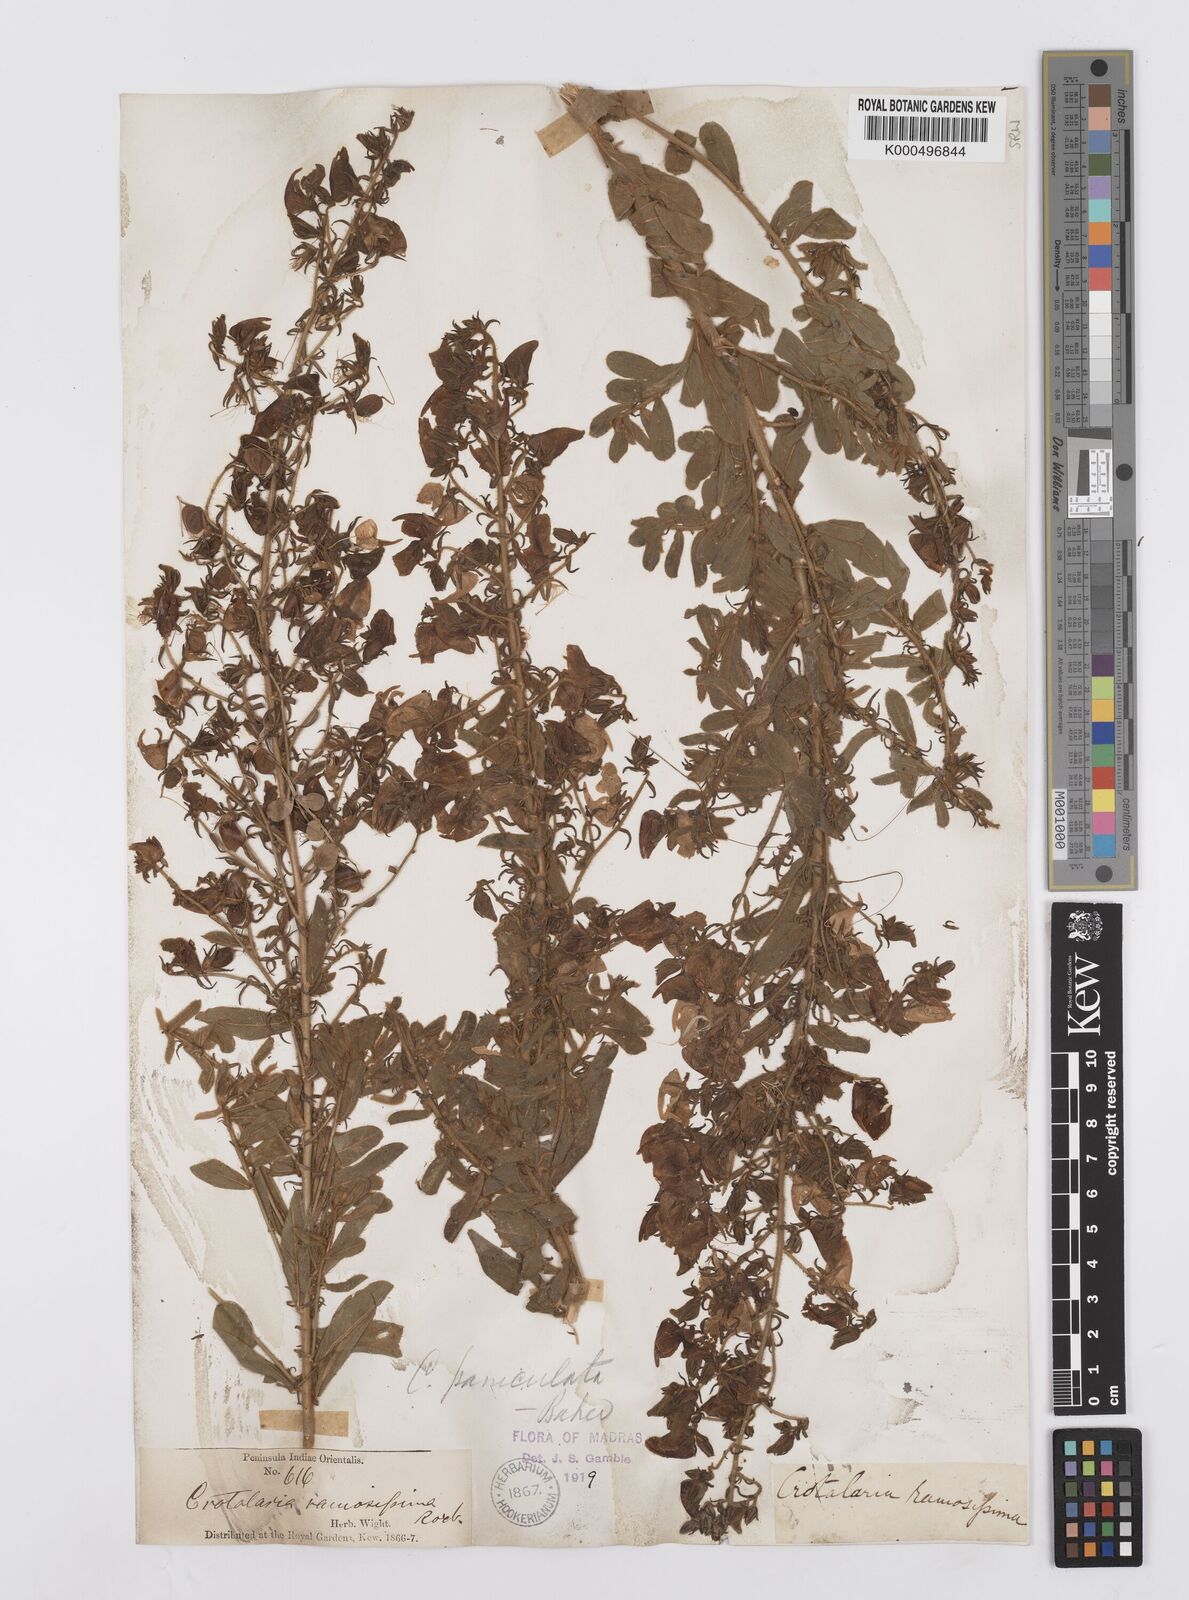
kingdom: Plantae
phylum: Tracheophyta
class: Magnoliopsida
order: Fabales
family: Fabaceae
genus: Crotalaria
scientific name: Crotalaria paniculata
